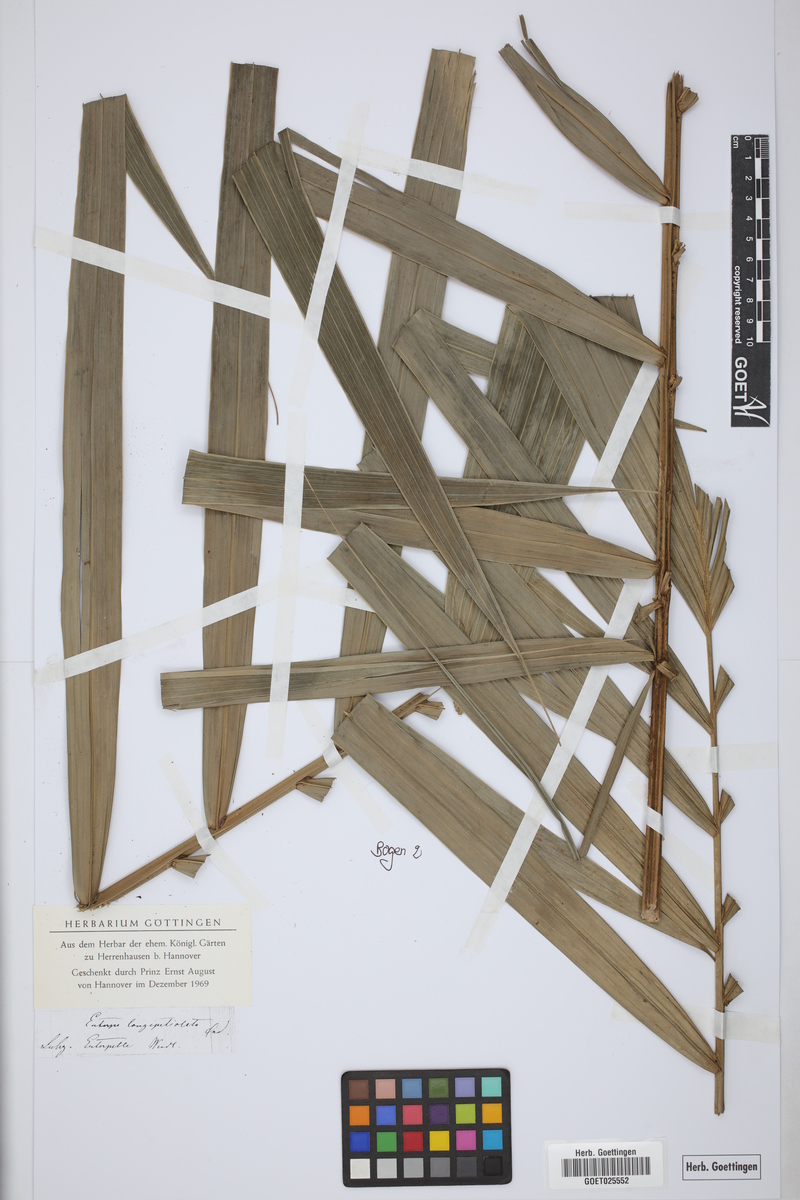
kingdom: Plantae
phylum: Tracheophyta
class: Liliopsida
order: Arecales
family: Arecaceae
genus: Prestoea
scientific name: Prestoea longepetiolata
